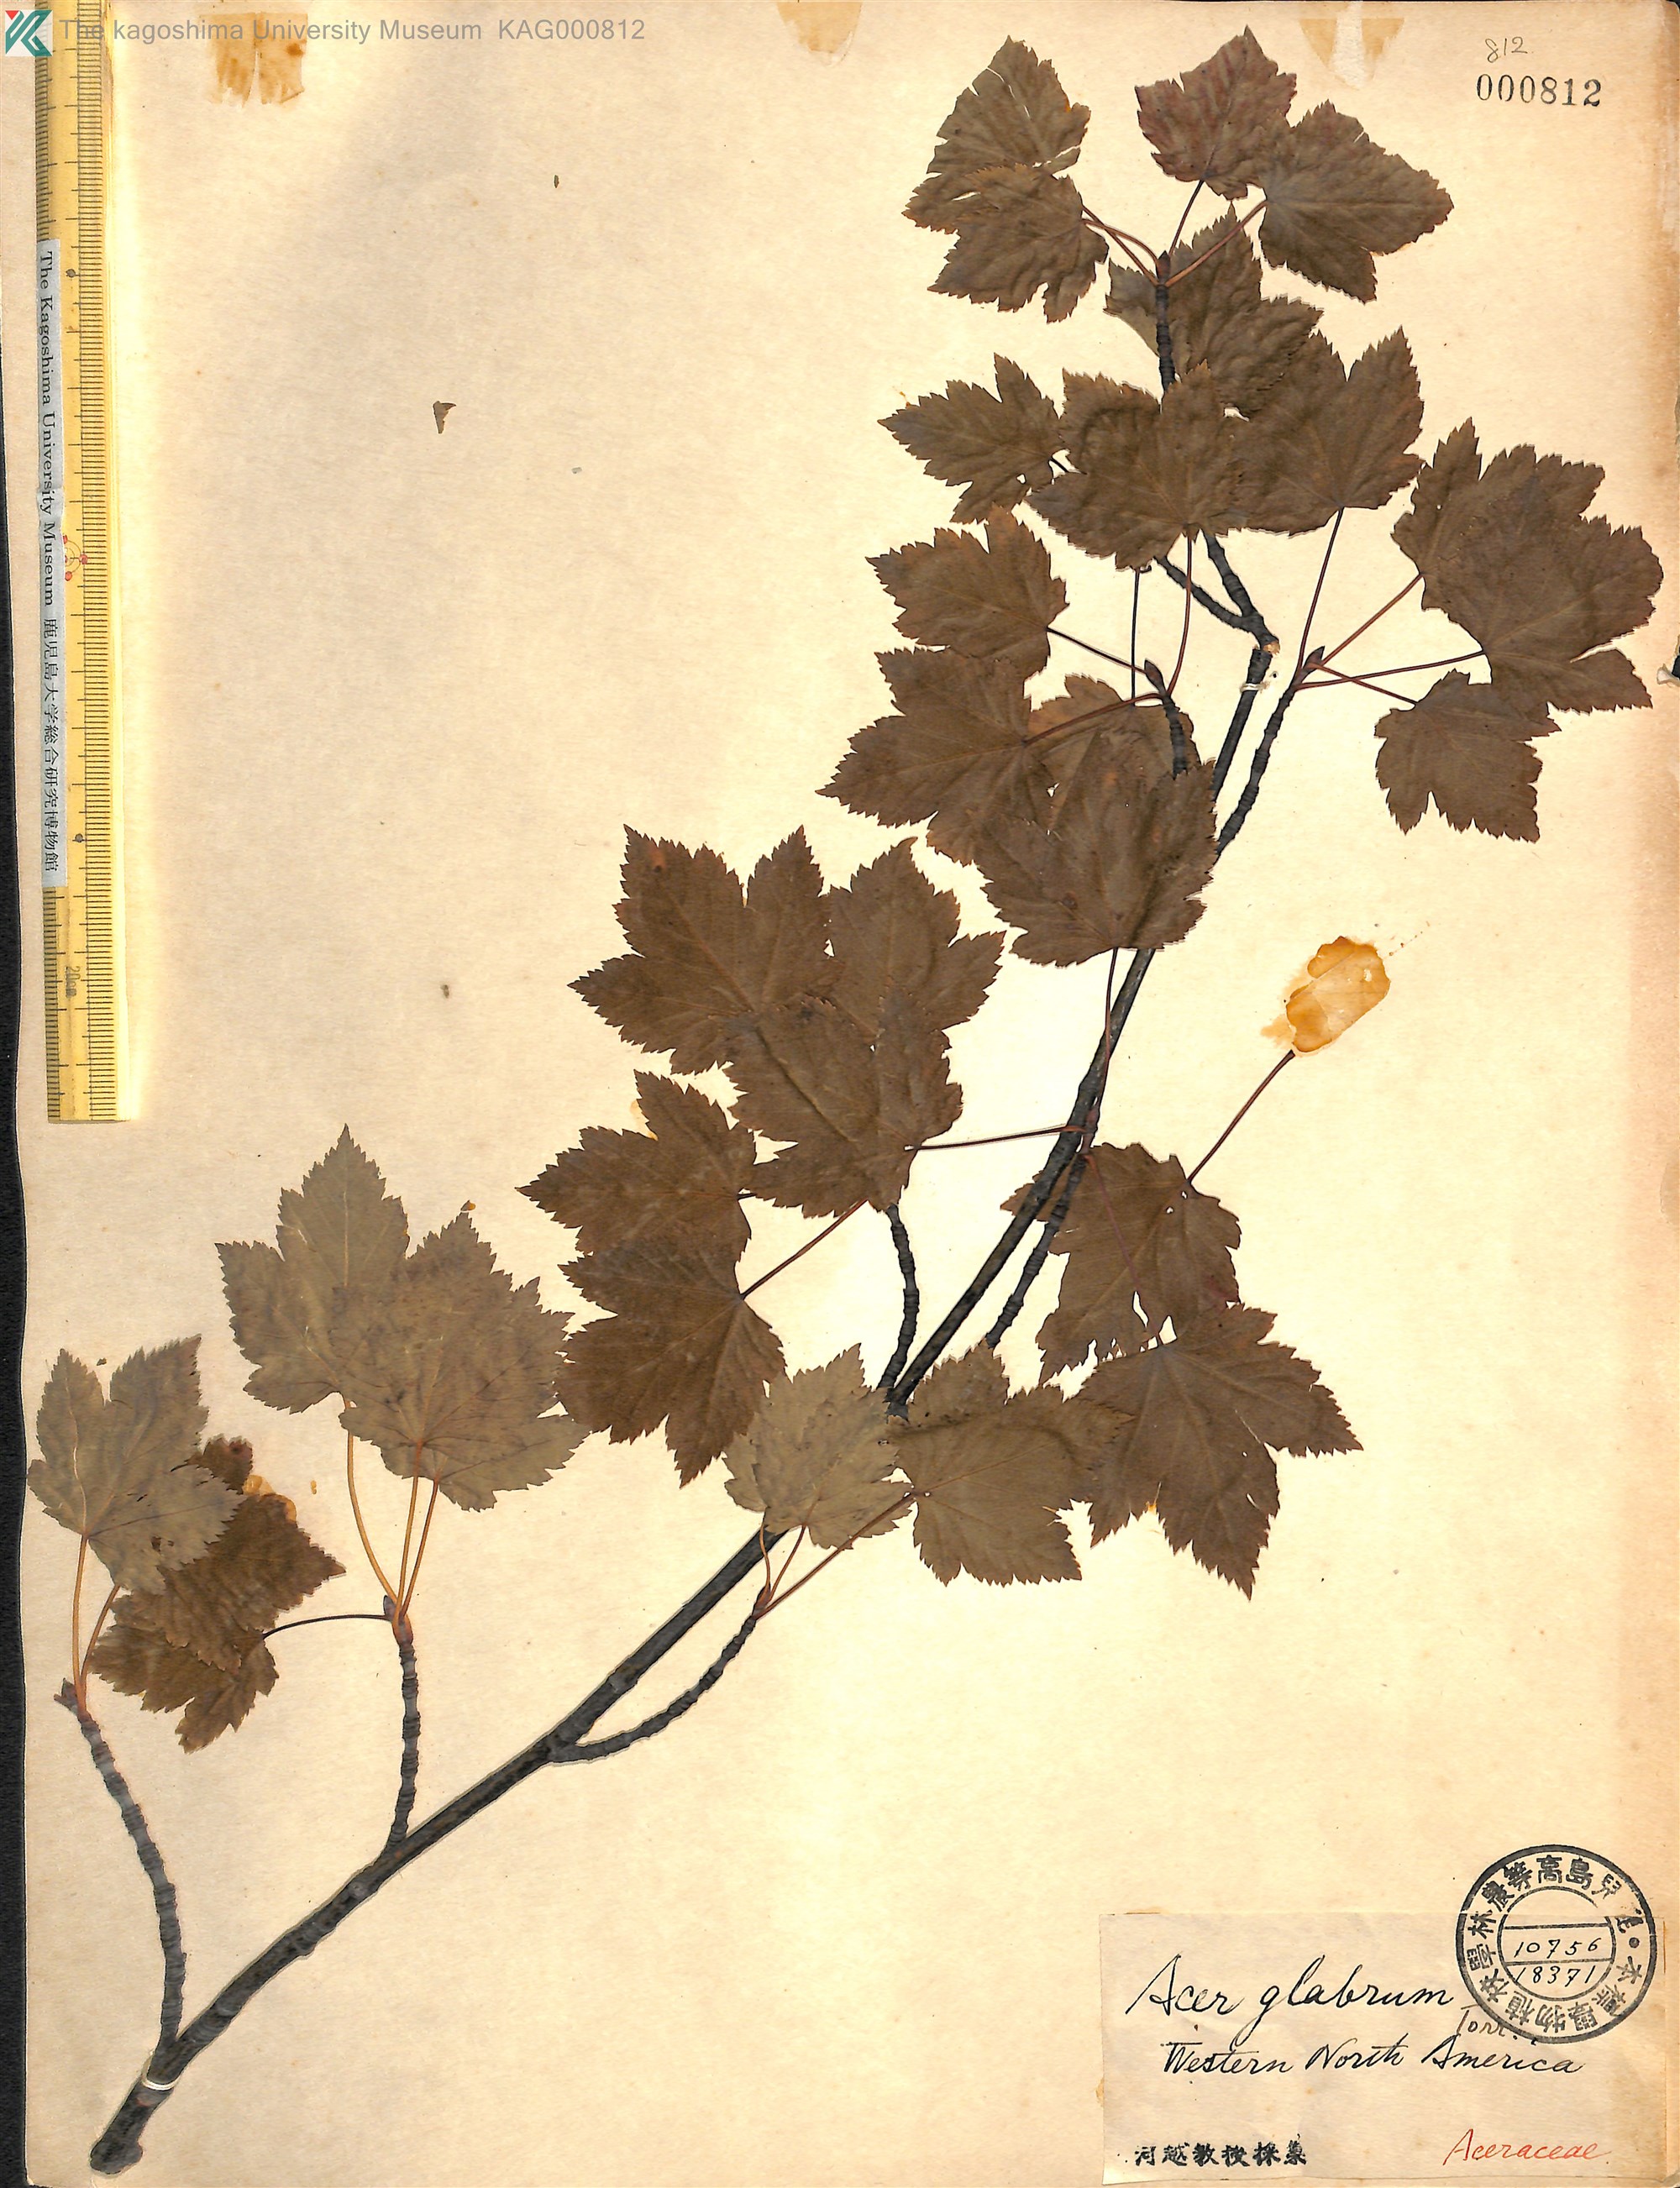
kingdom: Plantae
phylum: Tracheophyta
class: Magnoliopsida
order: Sapindales
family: Sapindaceae
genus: Acer
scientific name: Acer glabrum
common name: Rocky mountain maple
